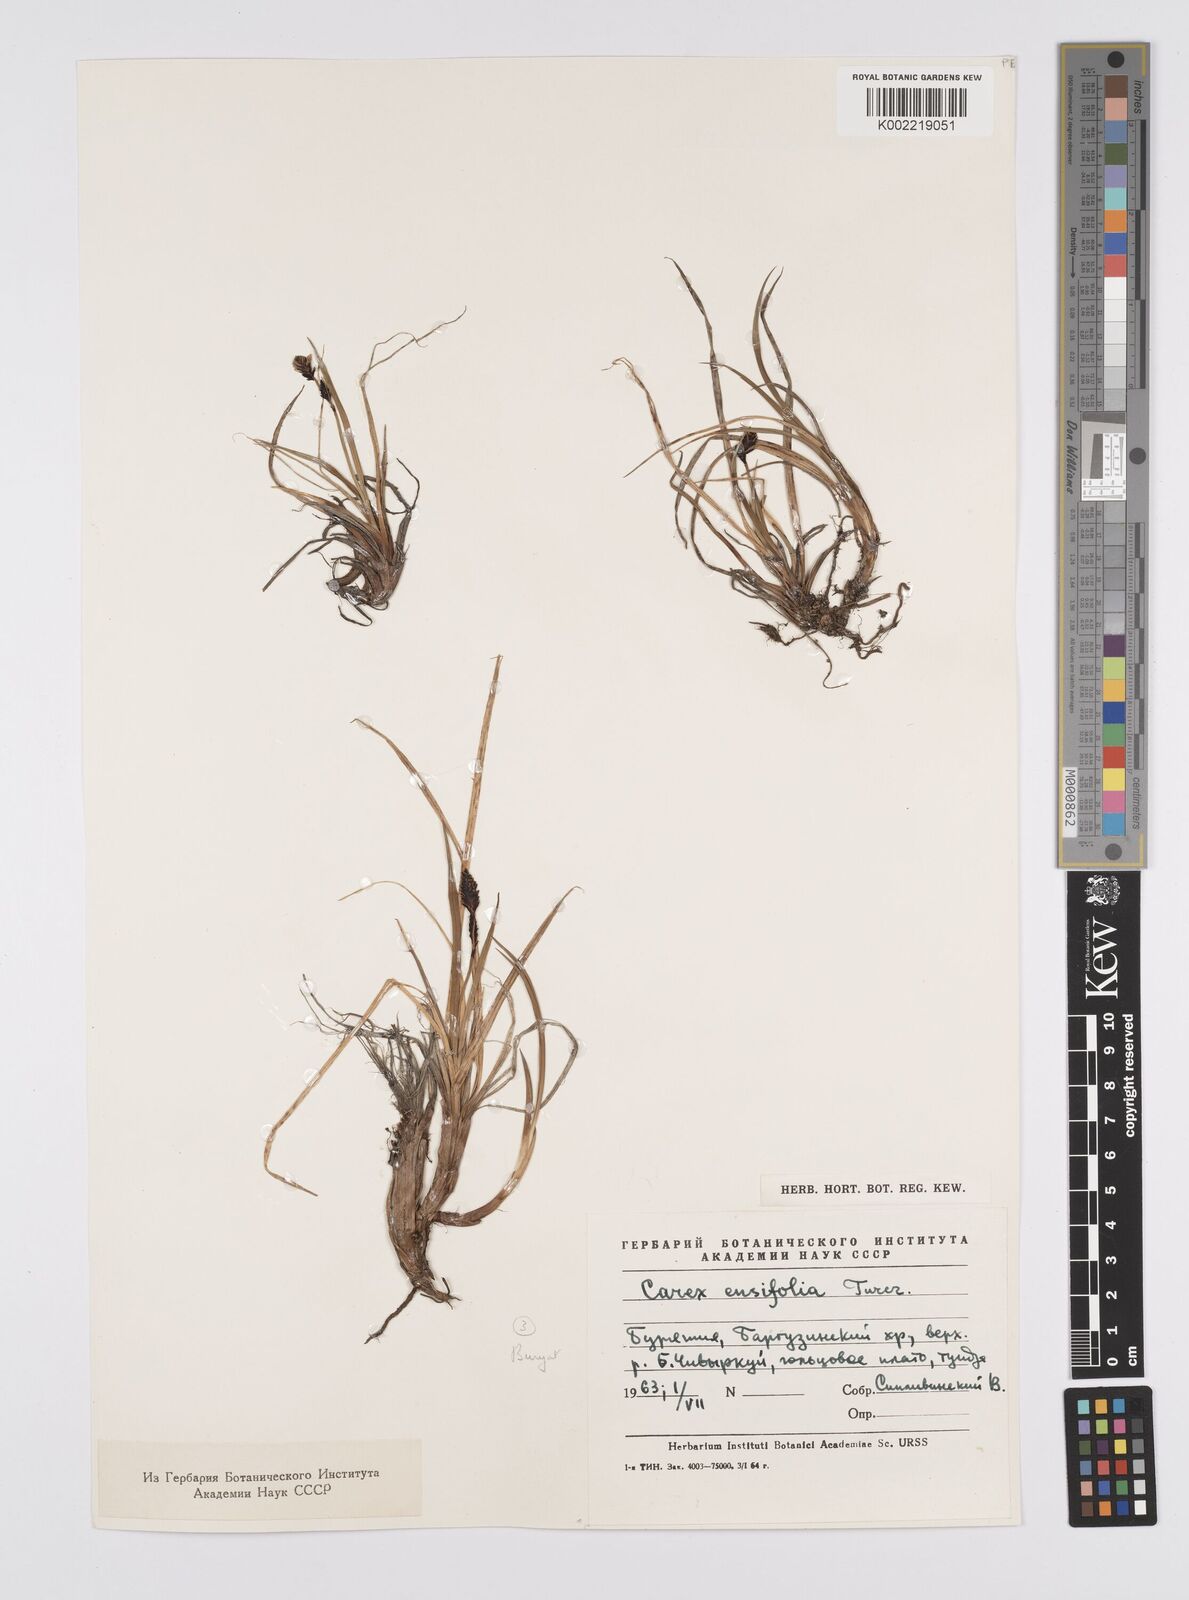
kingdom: Plantae
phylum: Tracheophyta
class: Liliopsida
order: Poales
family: Cyperaceae
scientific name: Cyperaceae
